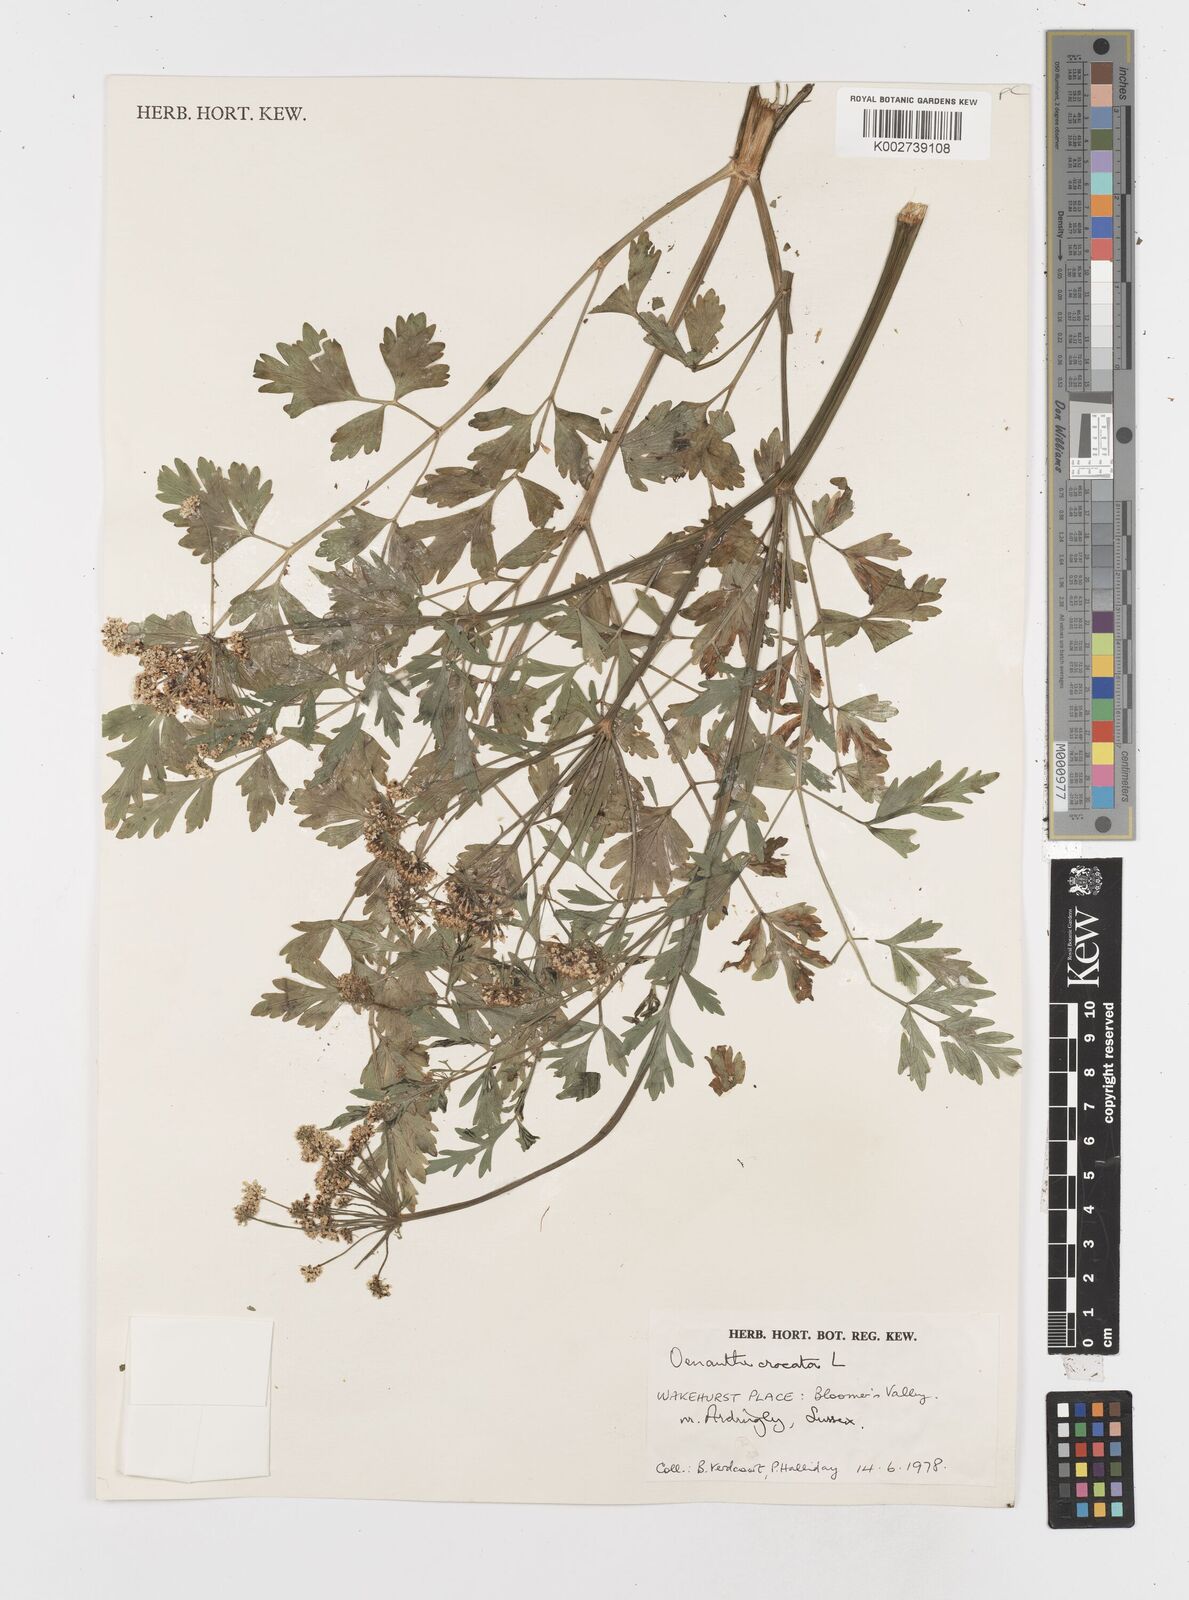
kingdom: Plantae
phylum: Tracheophyta
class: Magnoliopsida
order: Apiales
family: Apiaceae
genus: Oenanthe
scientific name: Oenanthe crocata
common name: Hemlock water-dropwort
